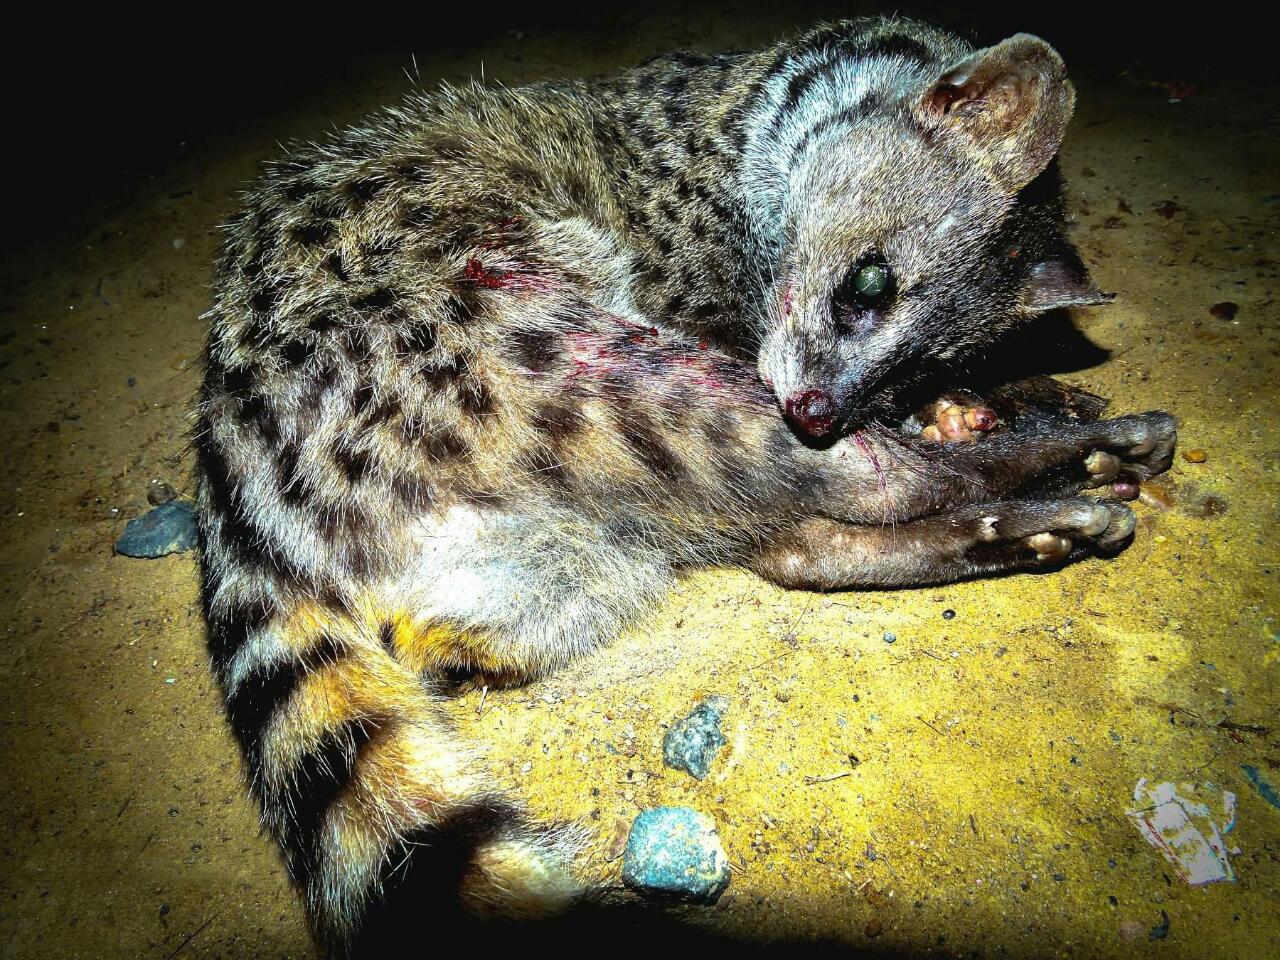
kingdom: Animalia
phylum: Chordata
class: Mammalia
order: Carnivora
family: Viverridae
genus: Viverricula
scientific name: Viverricula indica
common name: Small indian civet
